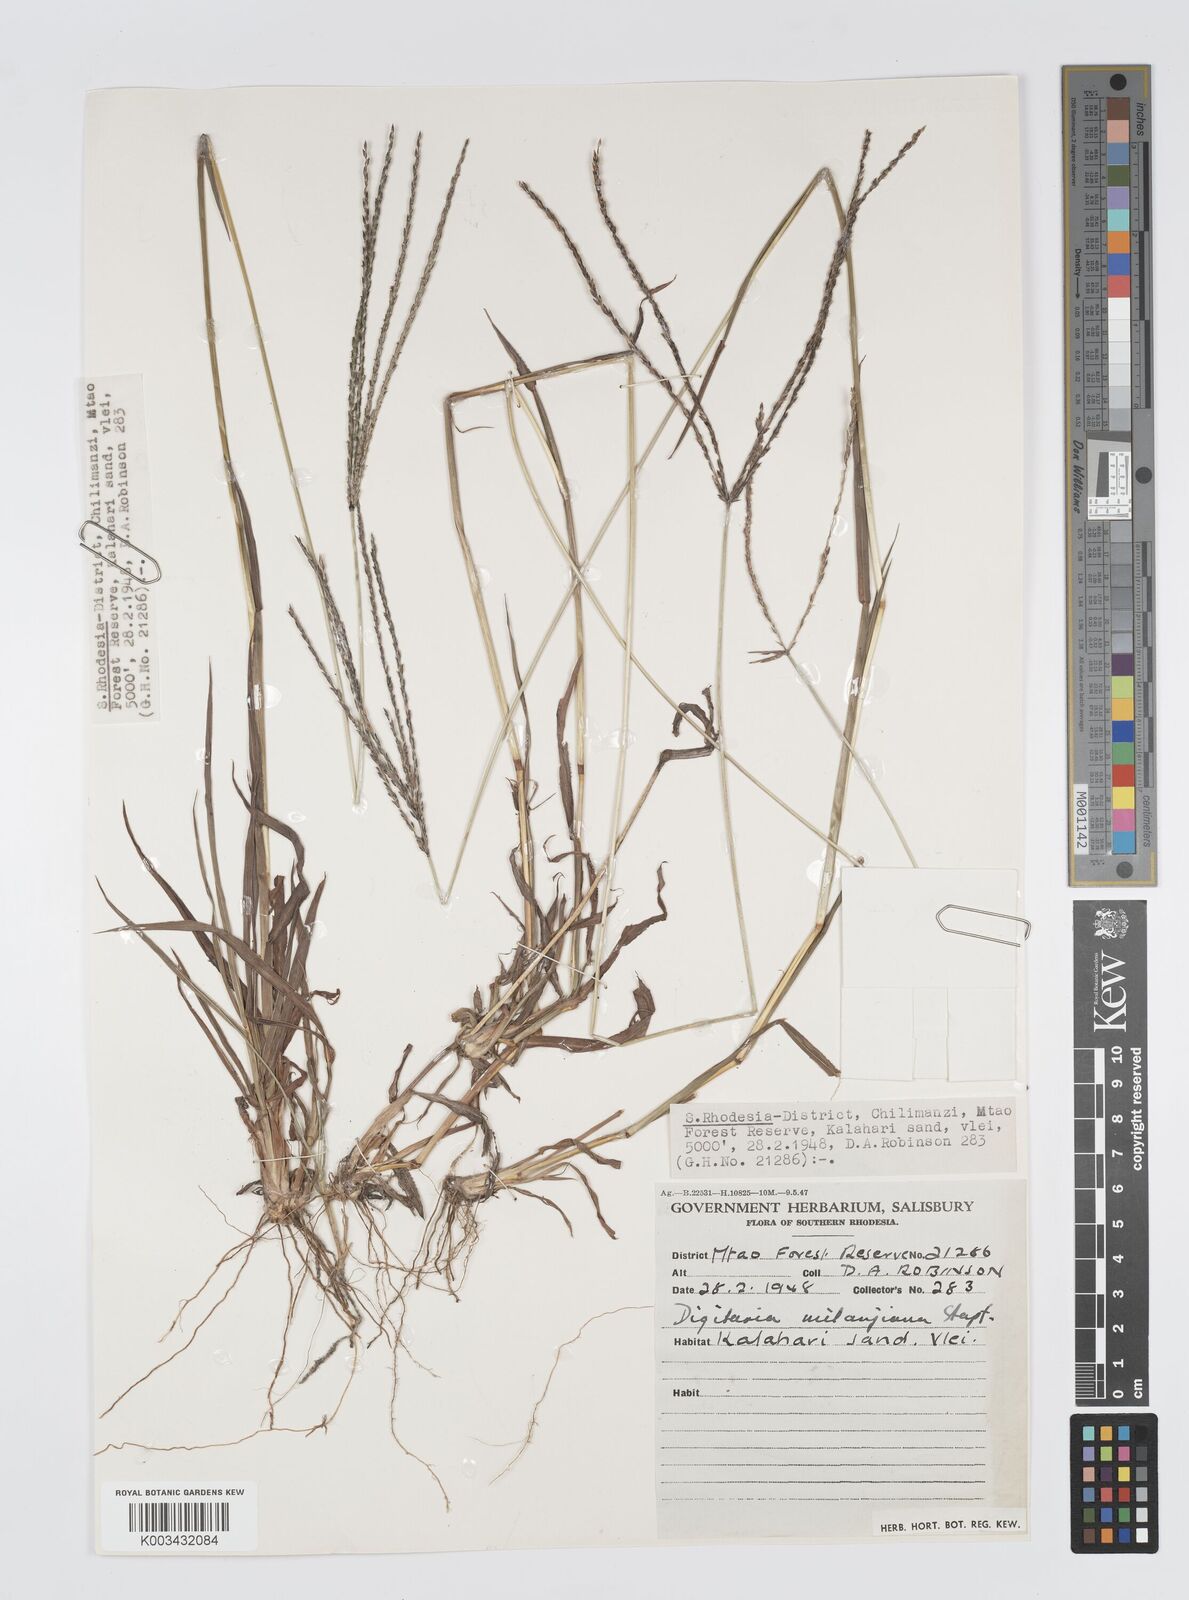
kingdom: Plantae
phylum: Tracheophyta
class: Liliopsida
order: Poales
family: Poaceae
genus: Digitaria
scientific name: Digitaria milanjiana
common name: Madagascar crabgrass
